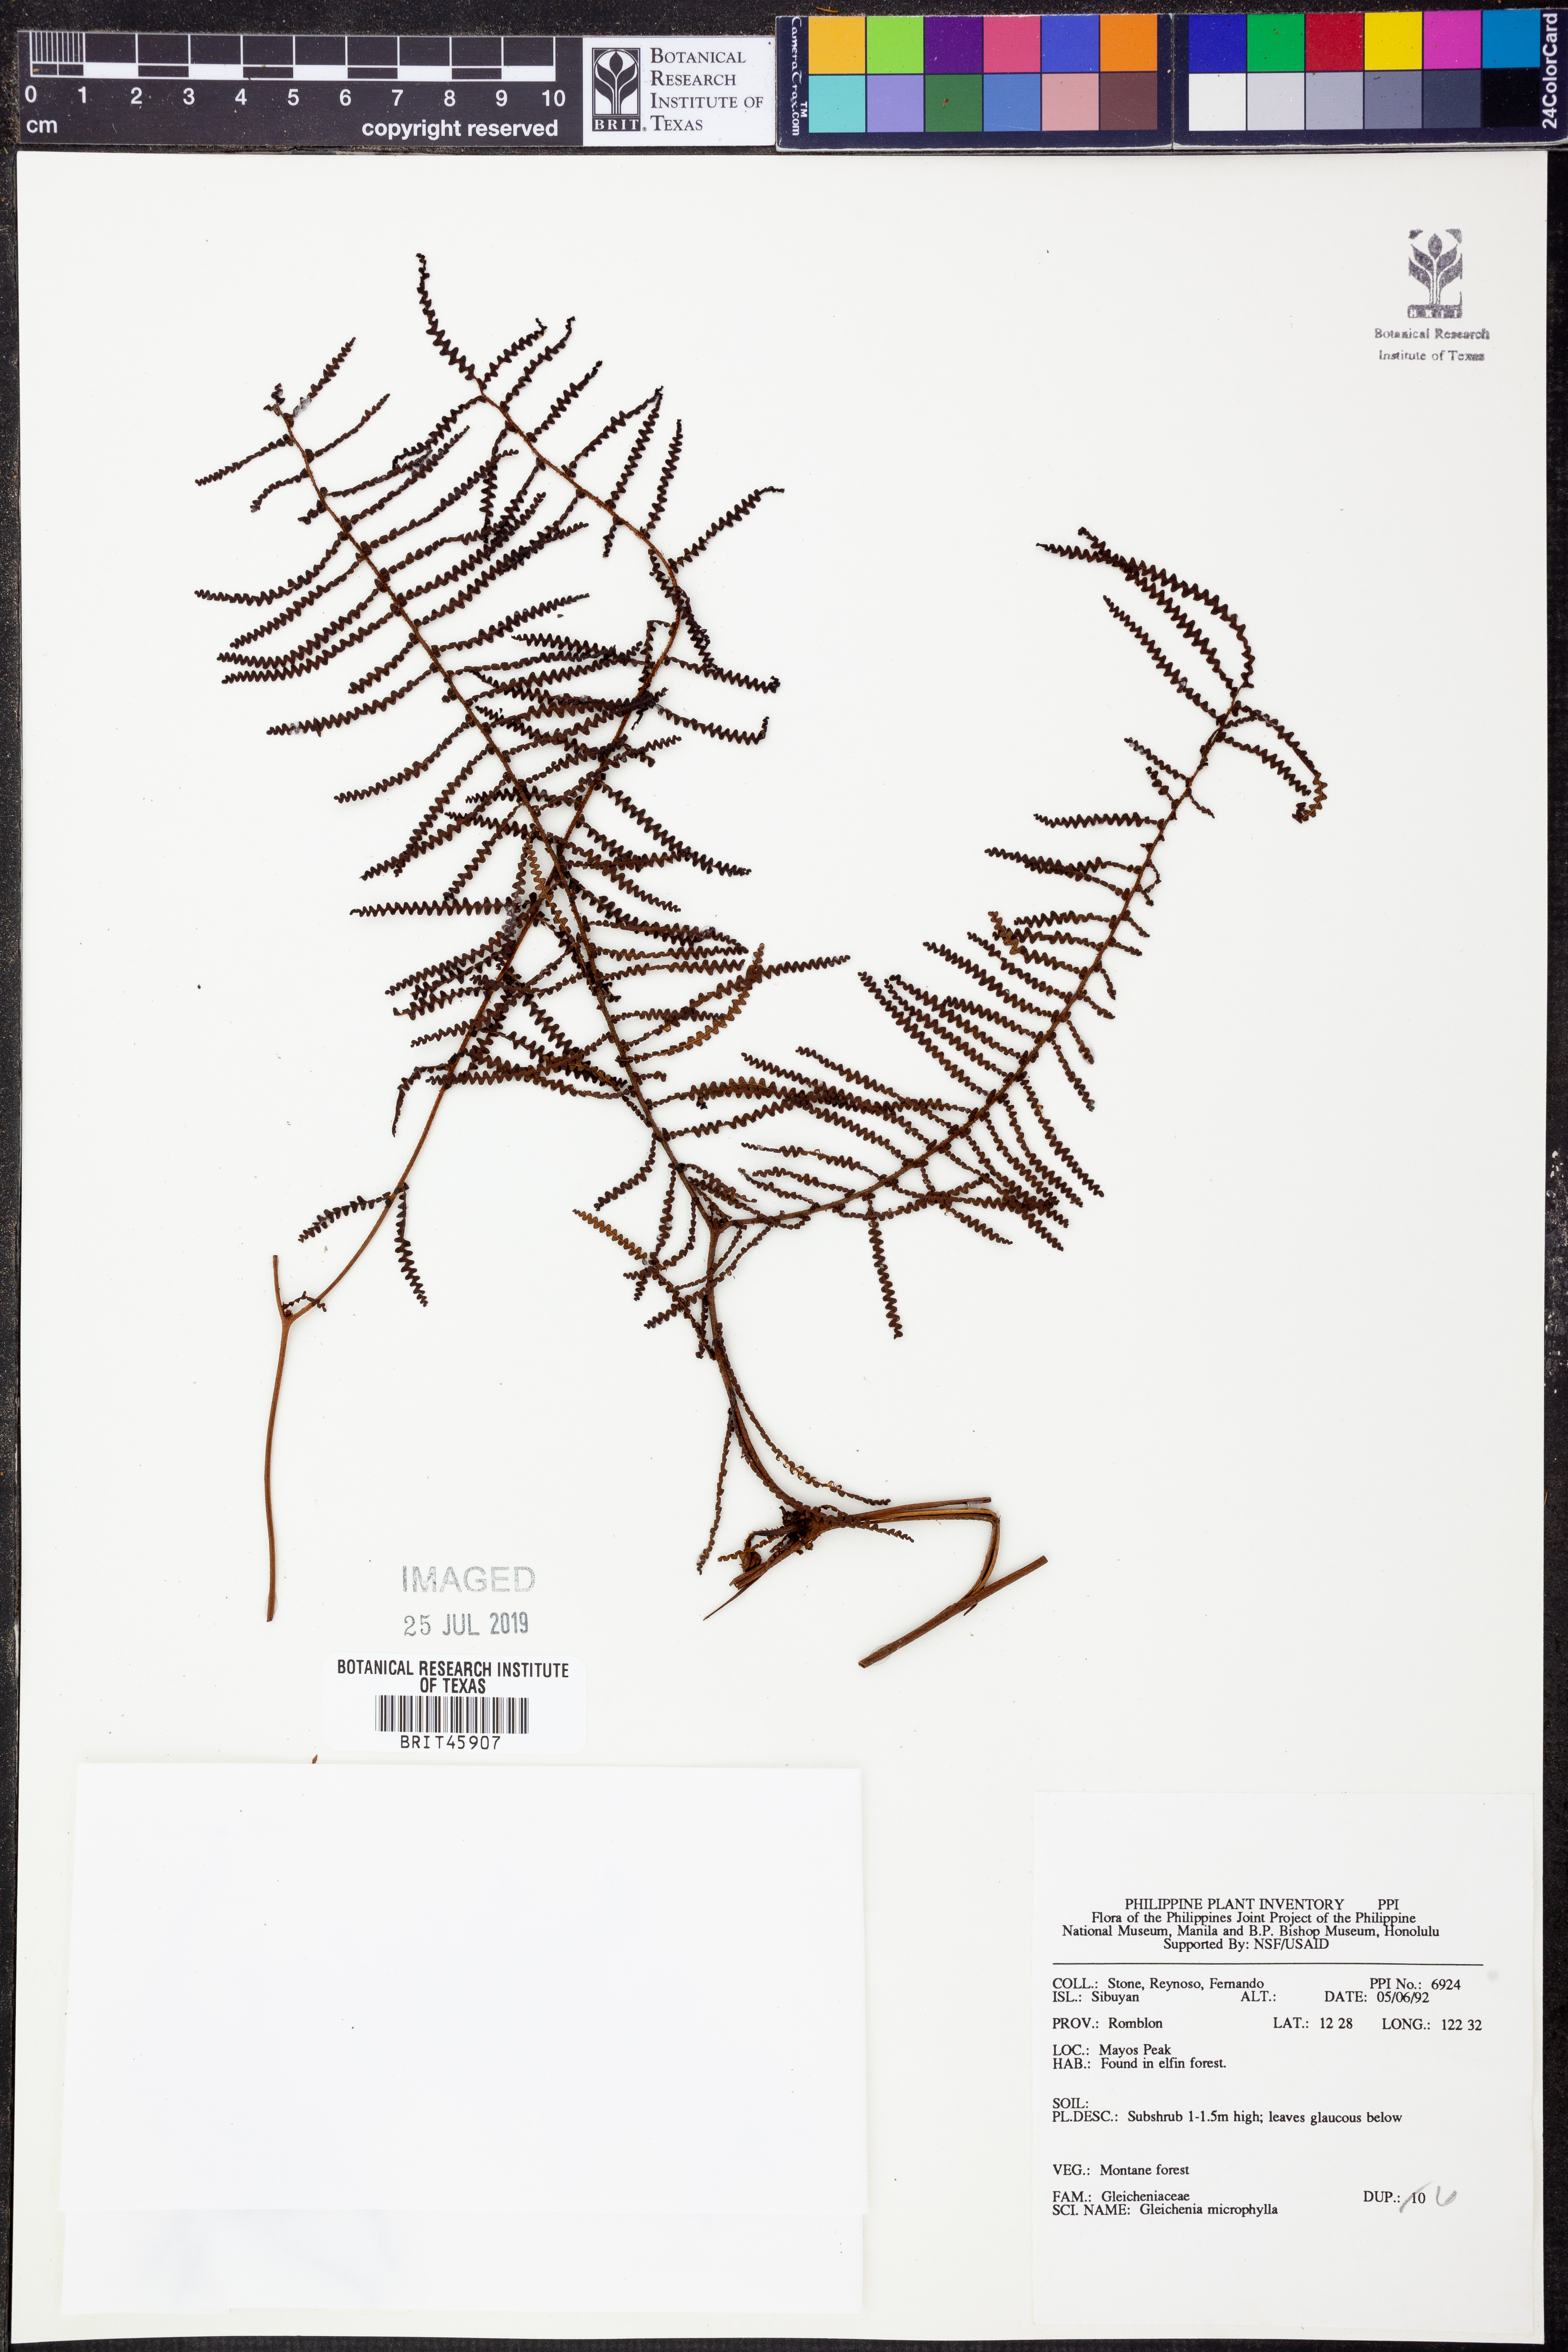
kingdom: Plantae
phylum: Tracheophyta
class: Polypodiopsida
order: Gleicheniales
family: Gleicheniaceae
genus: Gleichenia
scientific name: Gleichenia microphylla
